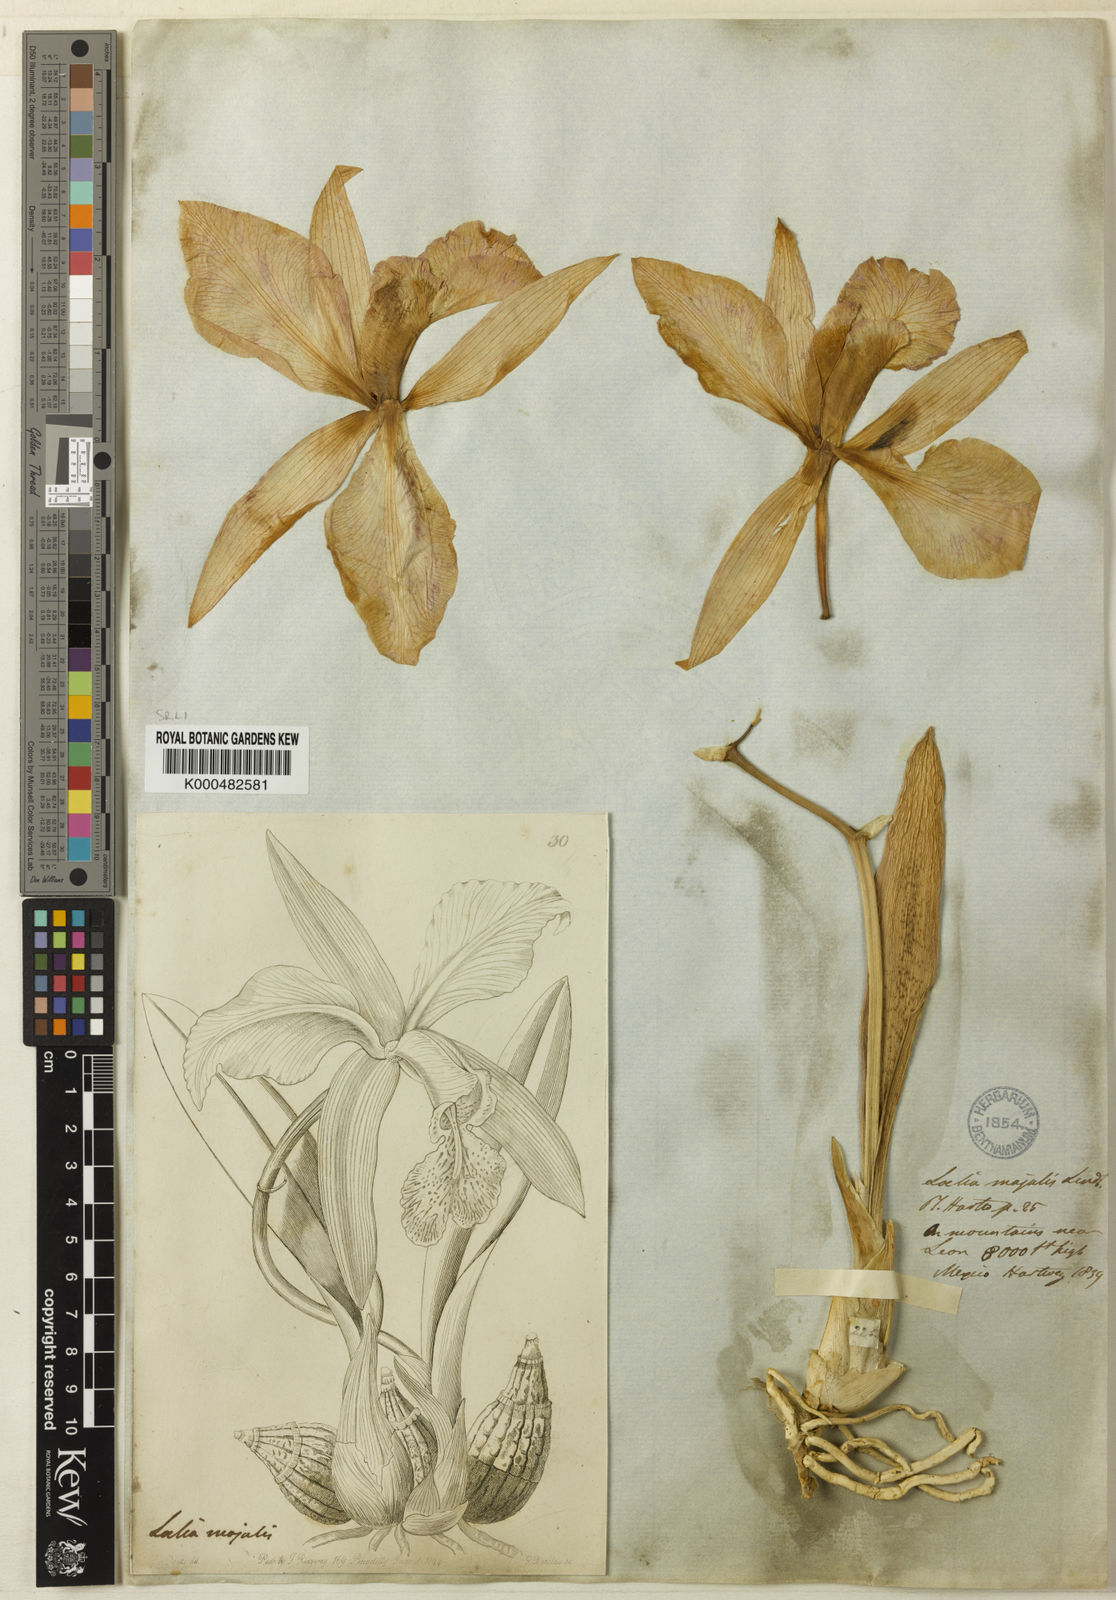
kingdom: Plantae
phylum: Tracheophyta
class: Liliopsida
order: Asparagales
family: Orchidaceae
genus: Laelia
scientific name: Laelia speciosa
